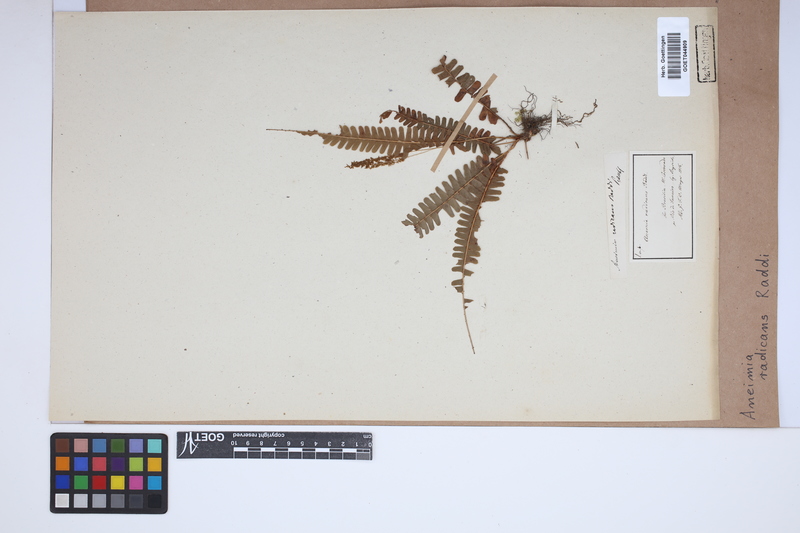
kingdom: Plantae
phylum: Tracheophyta
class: Polypodiopsida
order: Schizaeales
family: Anemiaceae
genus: Anemia
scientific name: Anemia blechnoides
